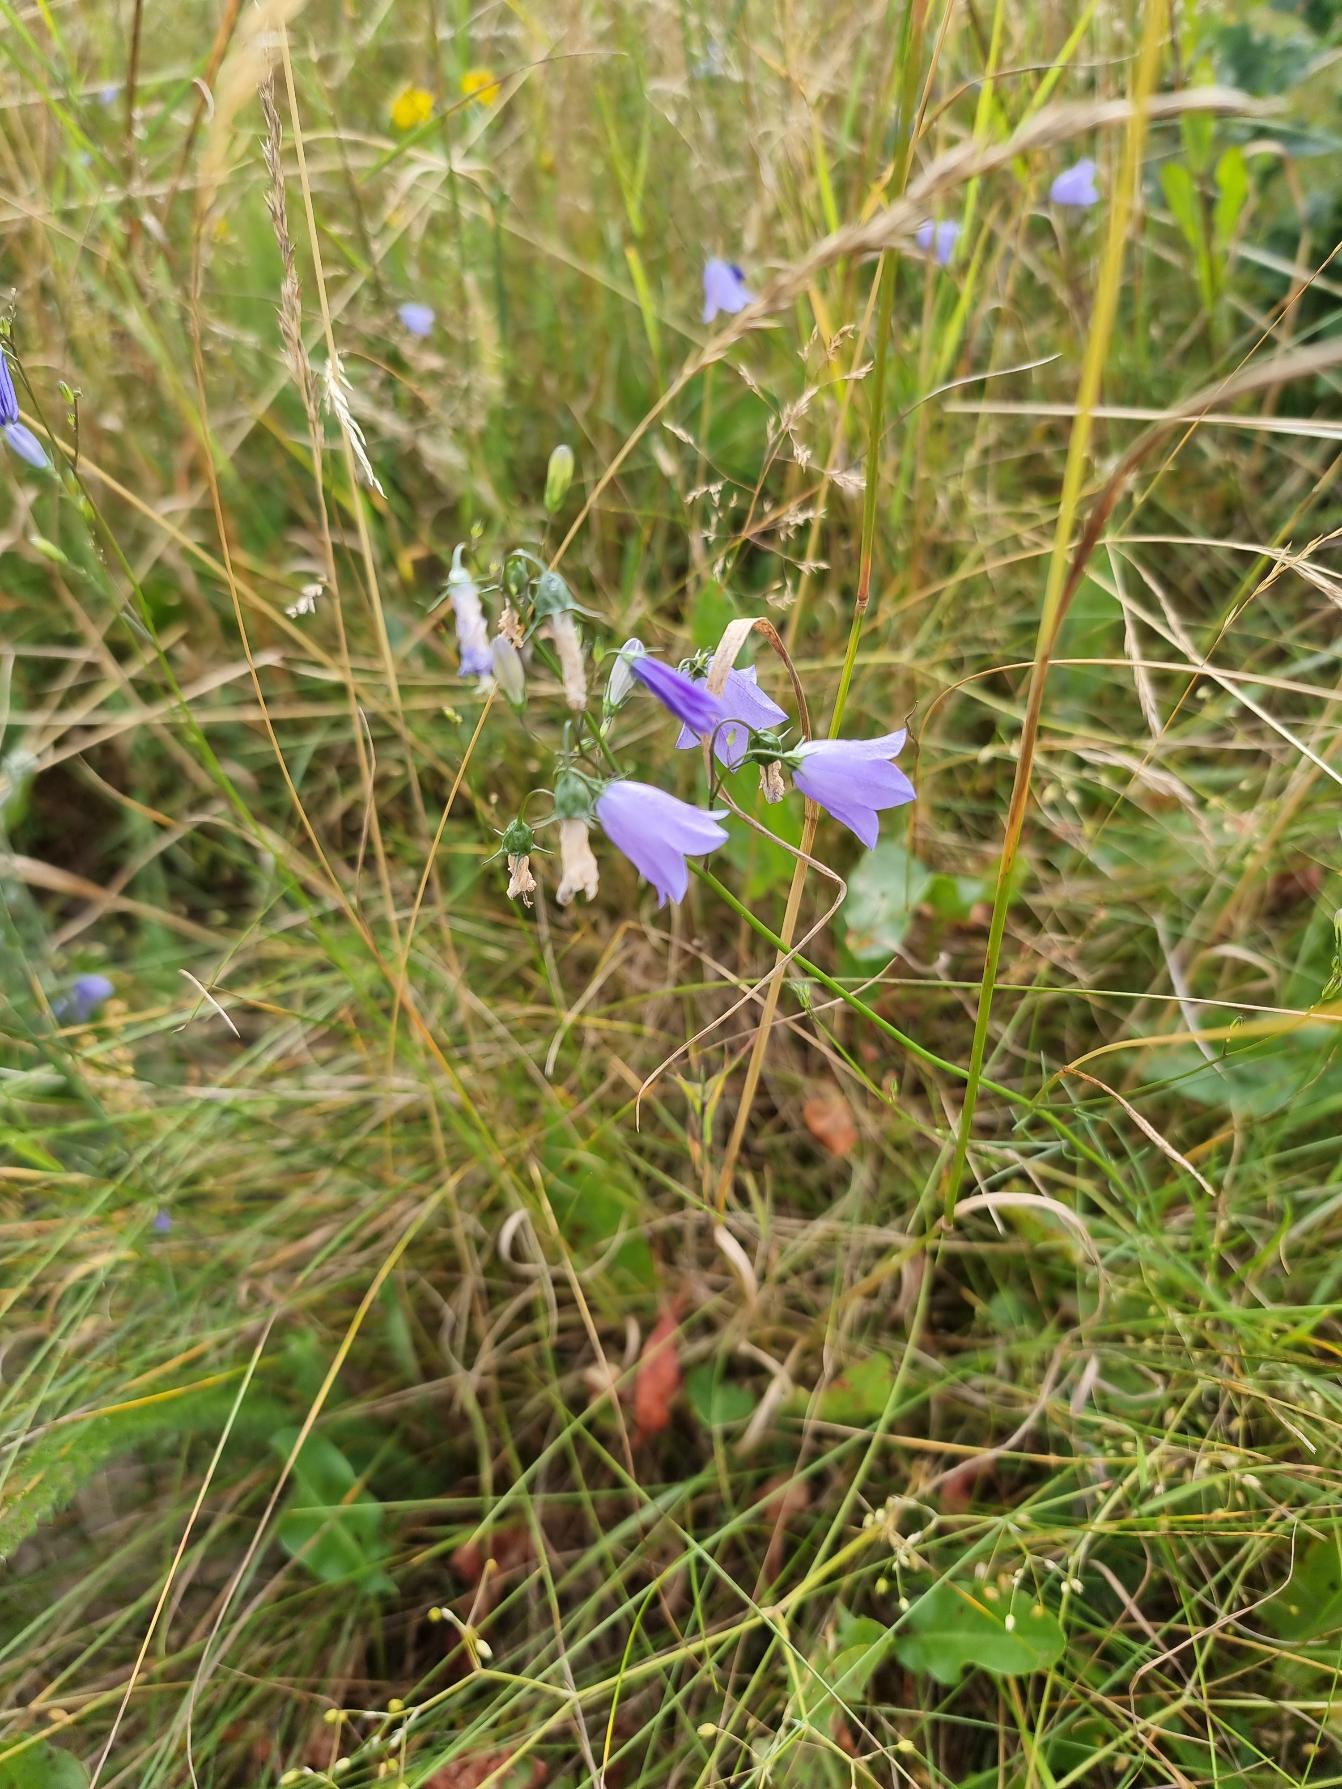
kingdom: Plantae
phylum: Tracheophyta
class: Magnoliopsida
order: Asterales
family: Campanulaceae
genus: Campanula
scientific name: Campanula rotundifolia
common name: Liden klokke
